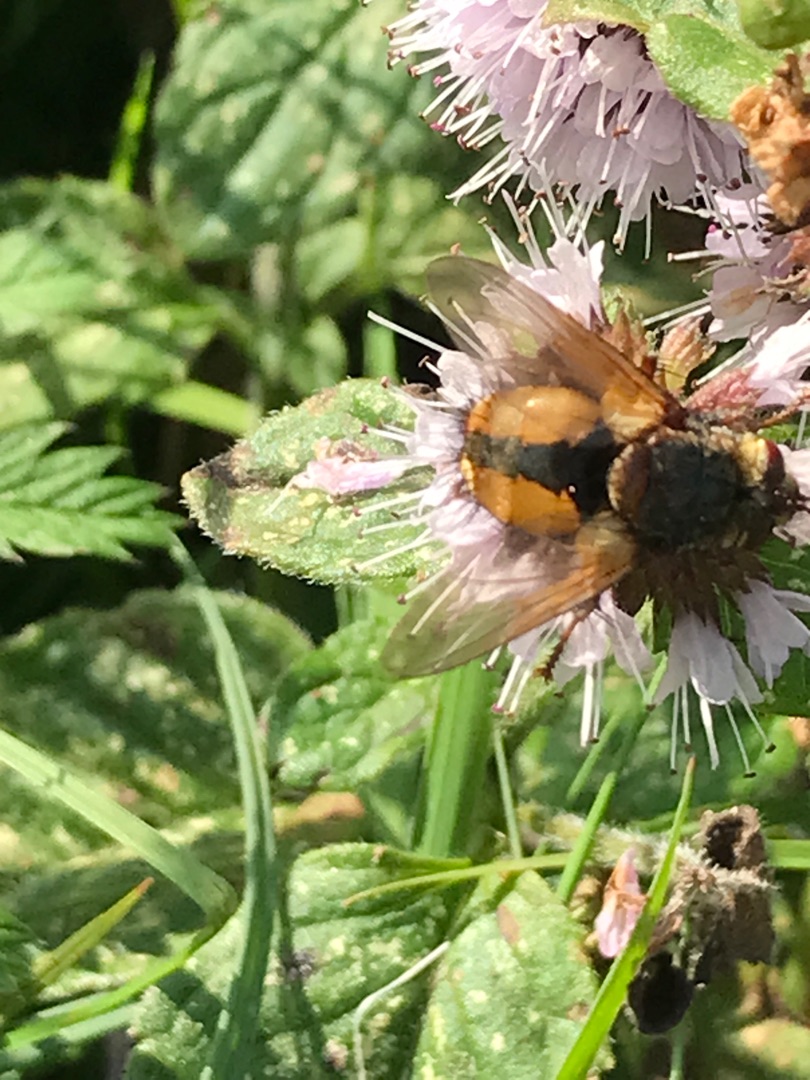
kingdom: Animalia
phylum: Arthropoda
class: Insecta
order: Diptera
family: Tachinidae
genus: Tachina
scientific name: Tachina fera
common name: Mellemfluen oskar
